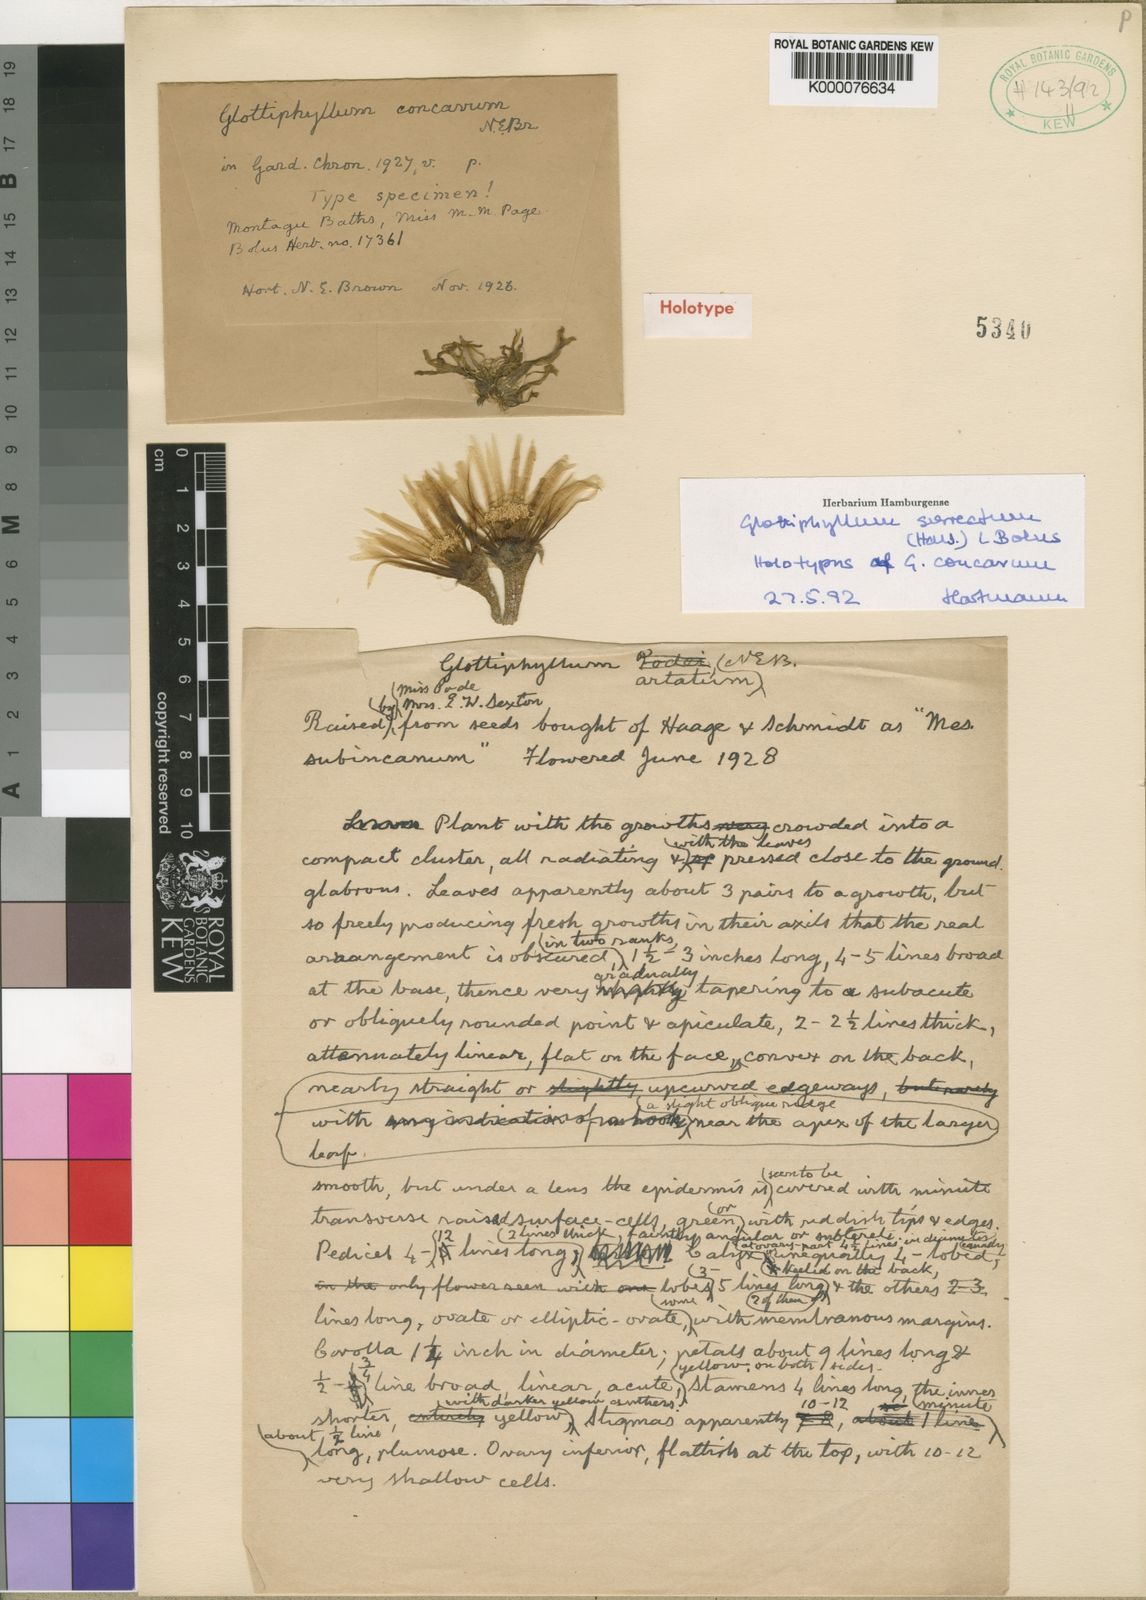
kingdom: Plantae
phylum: Tracheophyta
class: Magnoliopsida
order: Caryophyllales
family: Aizoaceae
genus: Glottiphyllum
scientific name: Glottiphyllum surrectum
